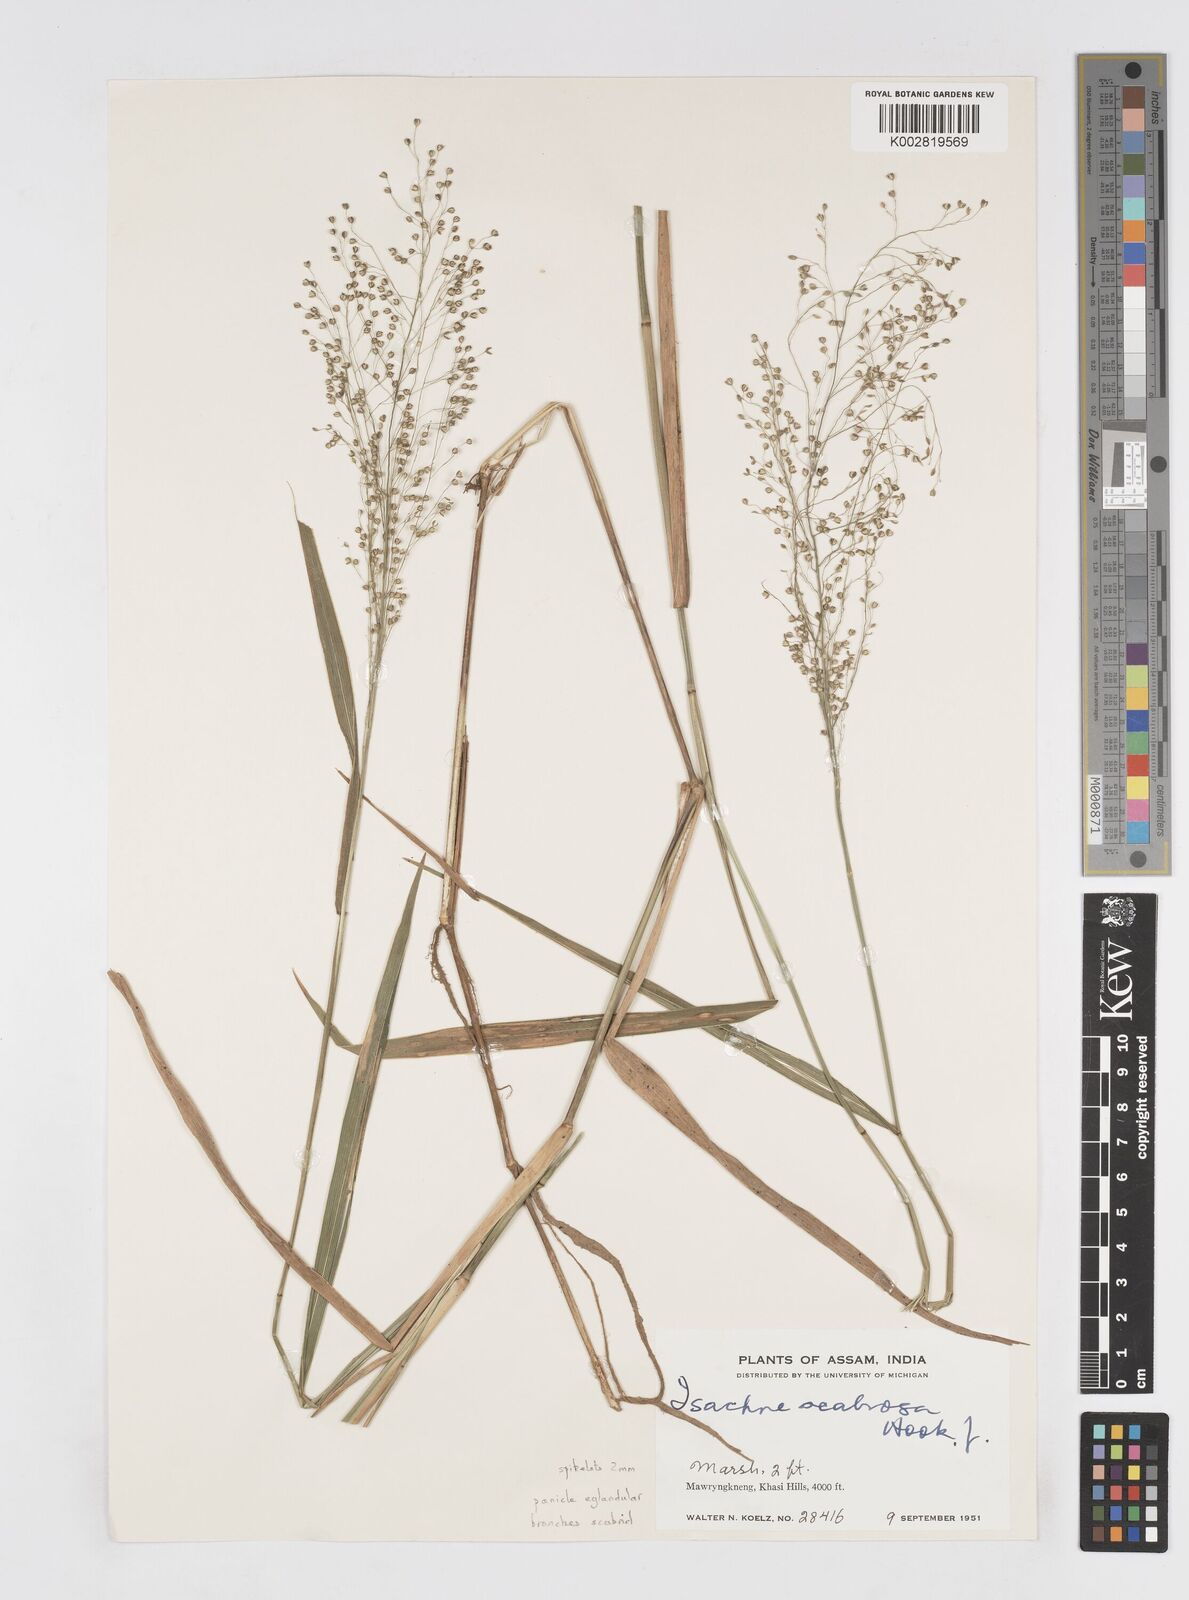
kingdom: Plantae
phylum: Tracheophyta
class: Liliopsida
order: Poales
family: Poaceae
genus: Isachne
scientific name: Isachne scabrosa
